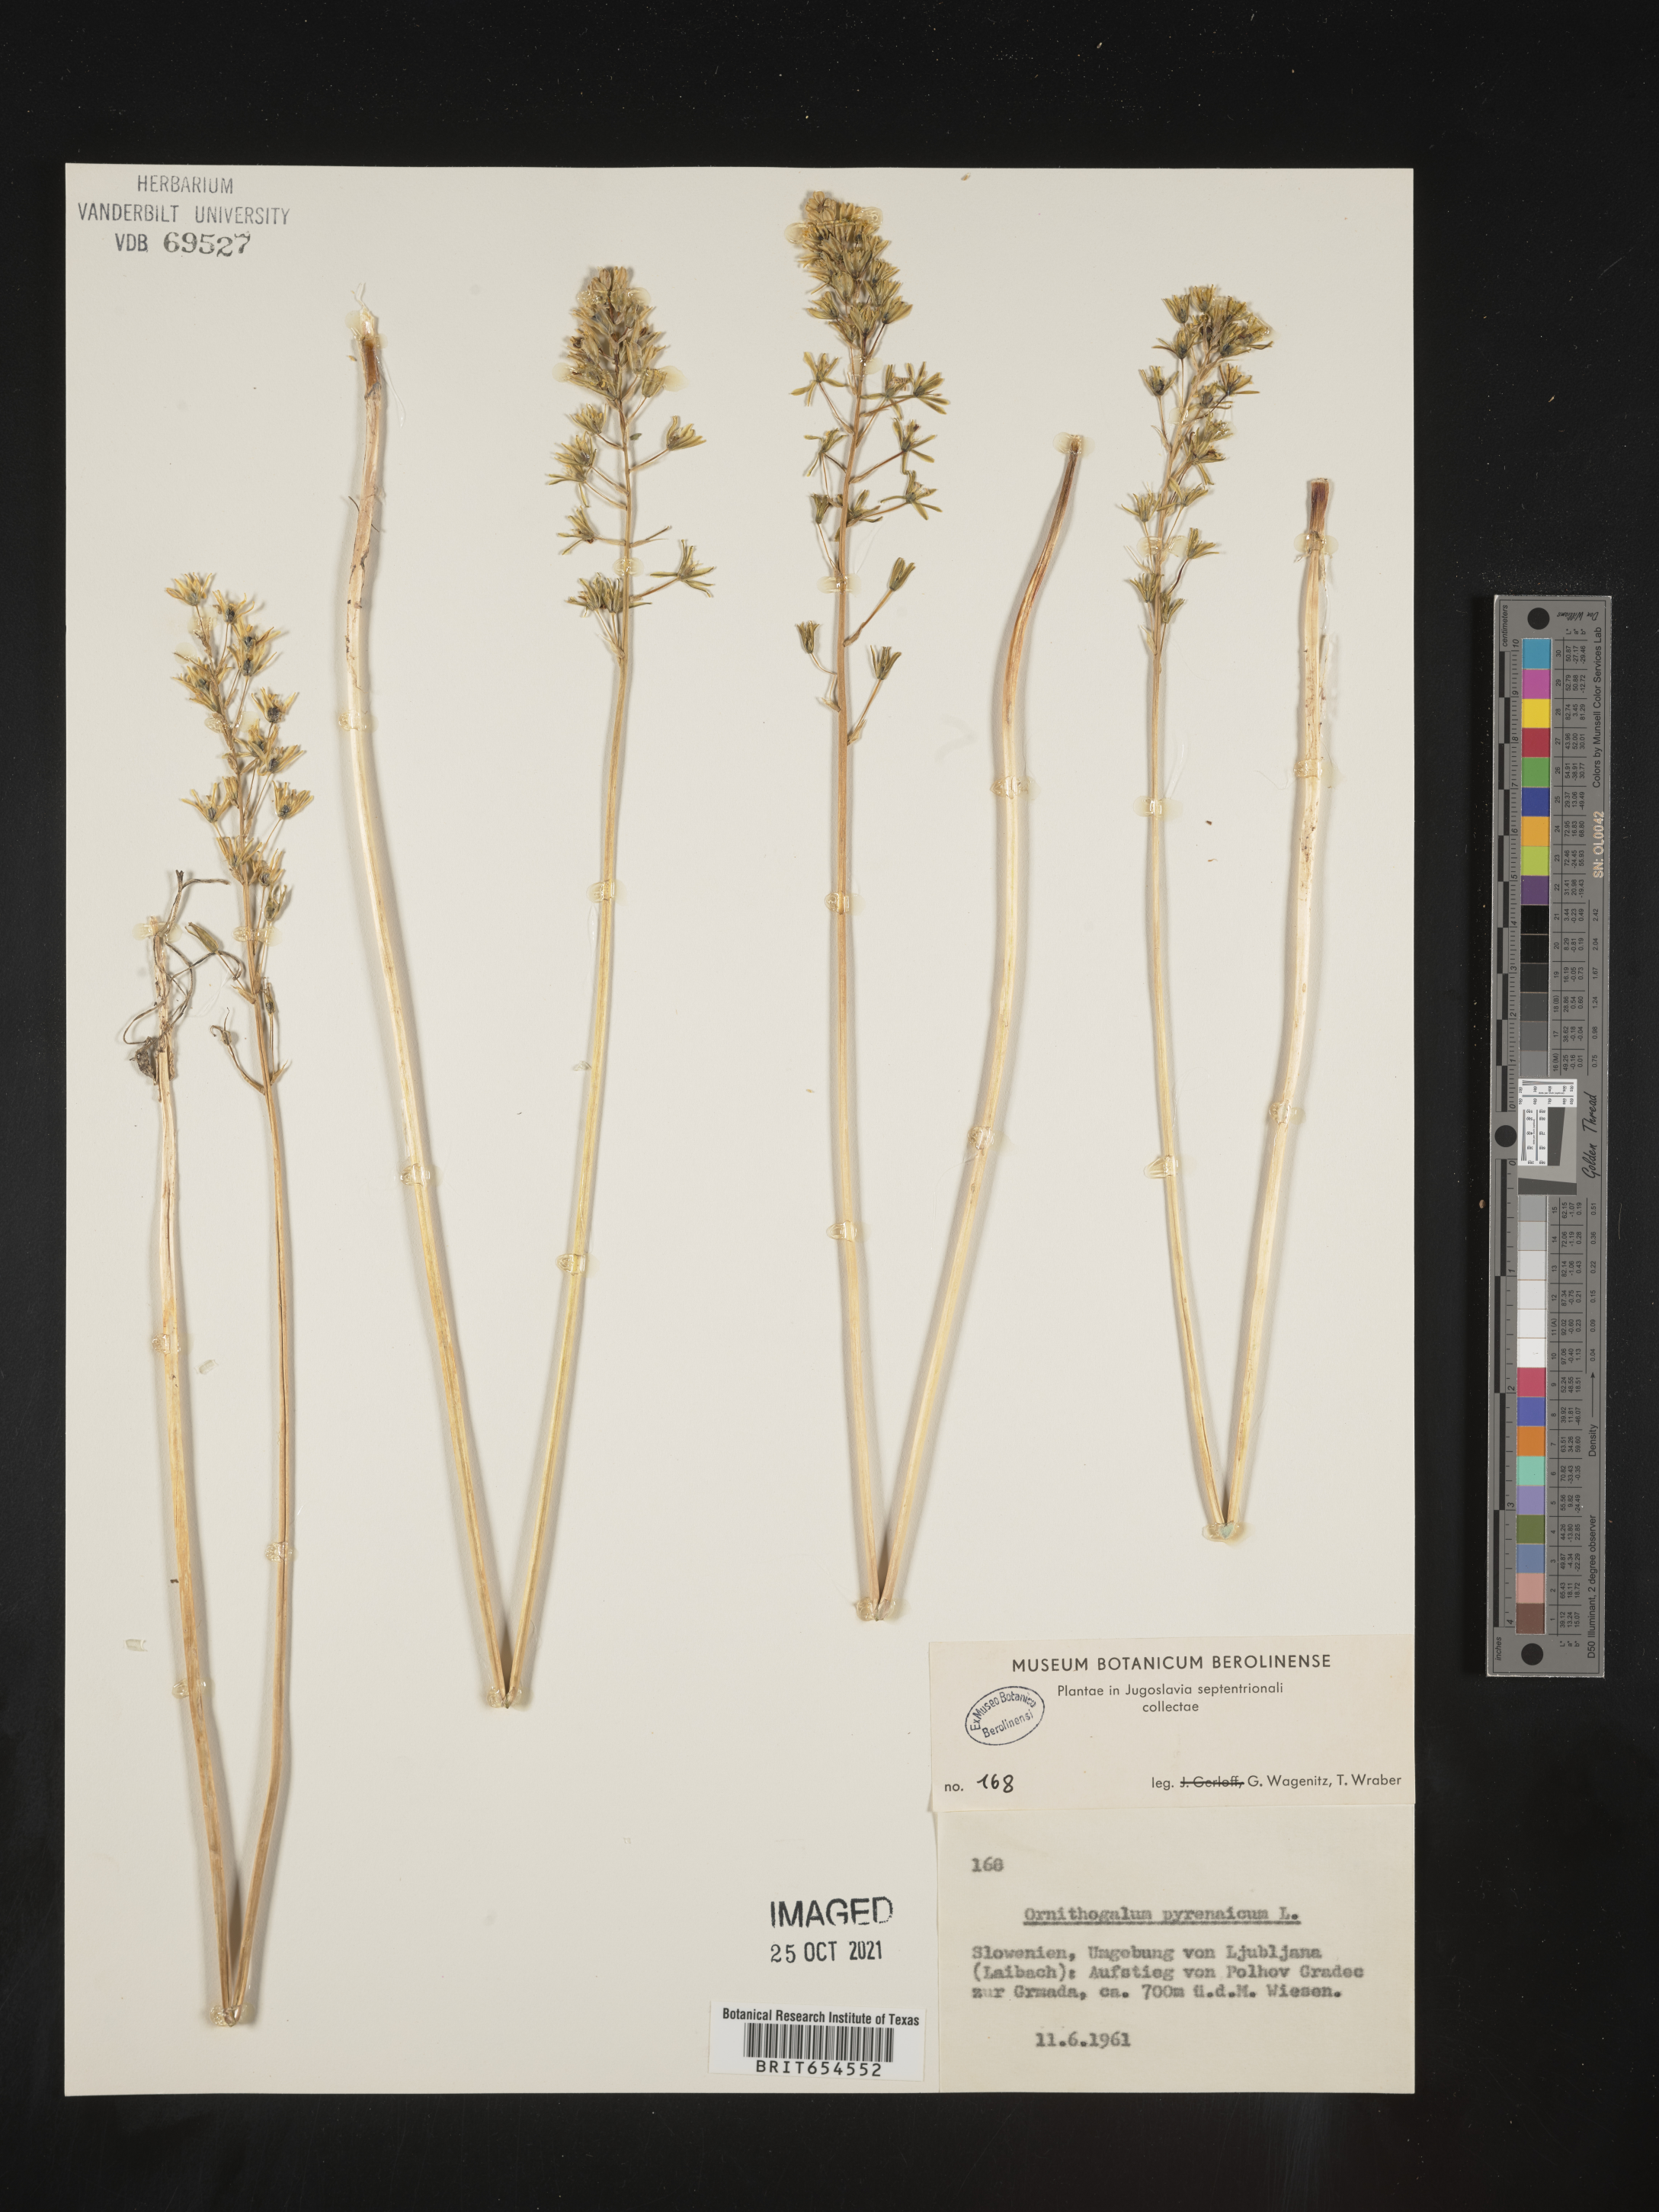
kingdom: Plantae
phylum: Tracheophyta
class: Liliopsida
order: Asparagales
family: Asparagaceae
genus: Ornithogalum
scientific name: Ornithogalum pyrenaicum
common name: Spiked star-of-bethlehem
